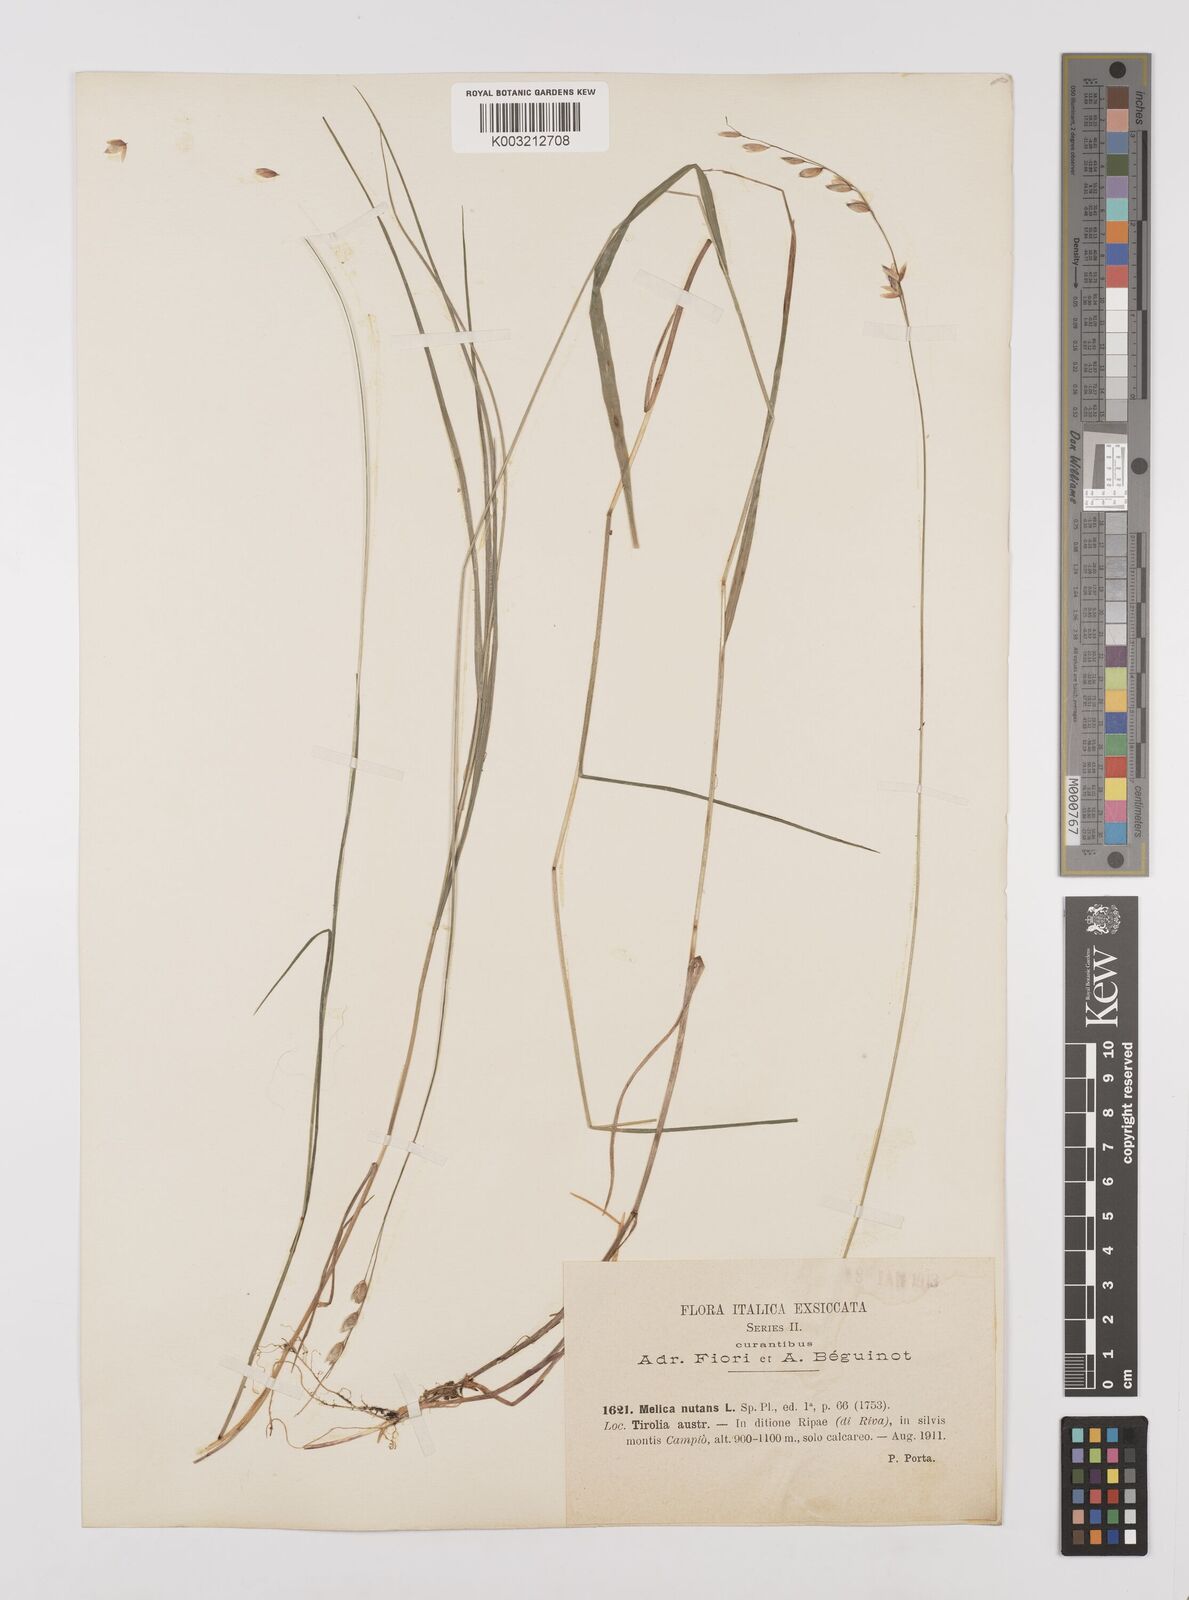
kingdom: Plantae
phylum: Tracheophyta
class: Liliopsida
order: Poales
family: Poaceae
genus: Melica
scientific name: Melica nutans
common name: Mountain melick
